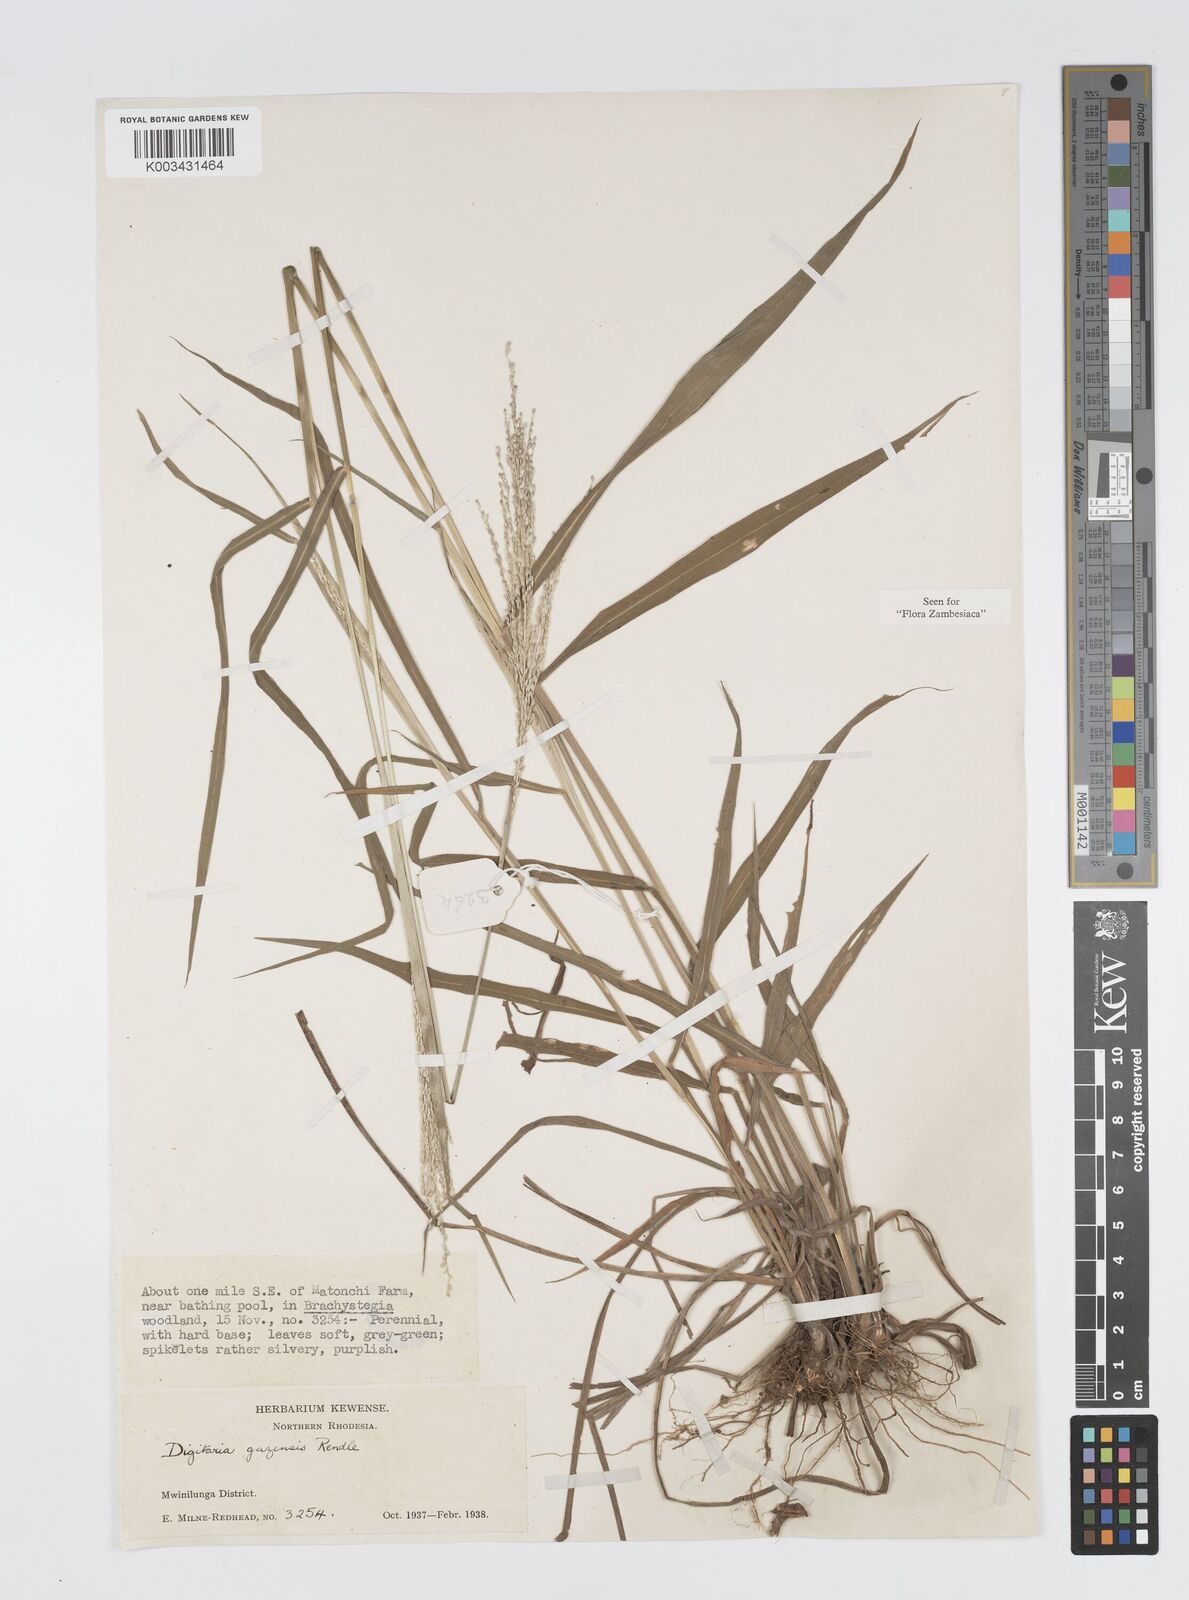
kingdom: Plantae
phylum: Tracheophyta
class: Liliopsida
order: Poales
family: Poaceae
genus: Digitaria
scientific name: Digitaria gazensis
